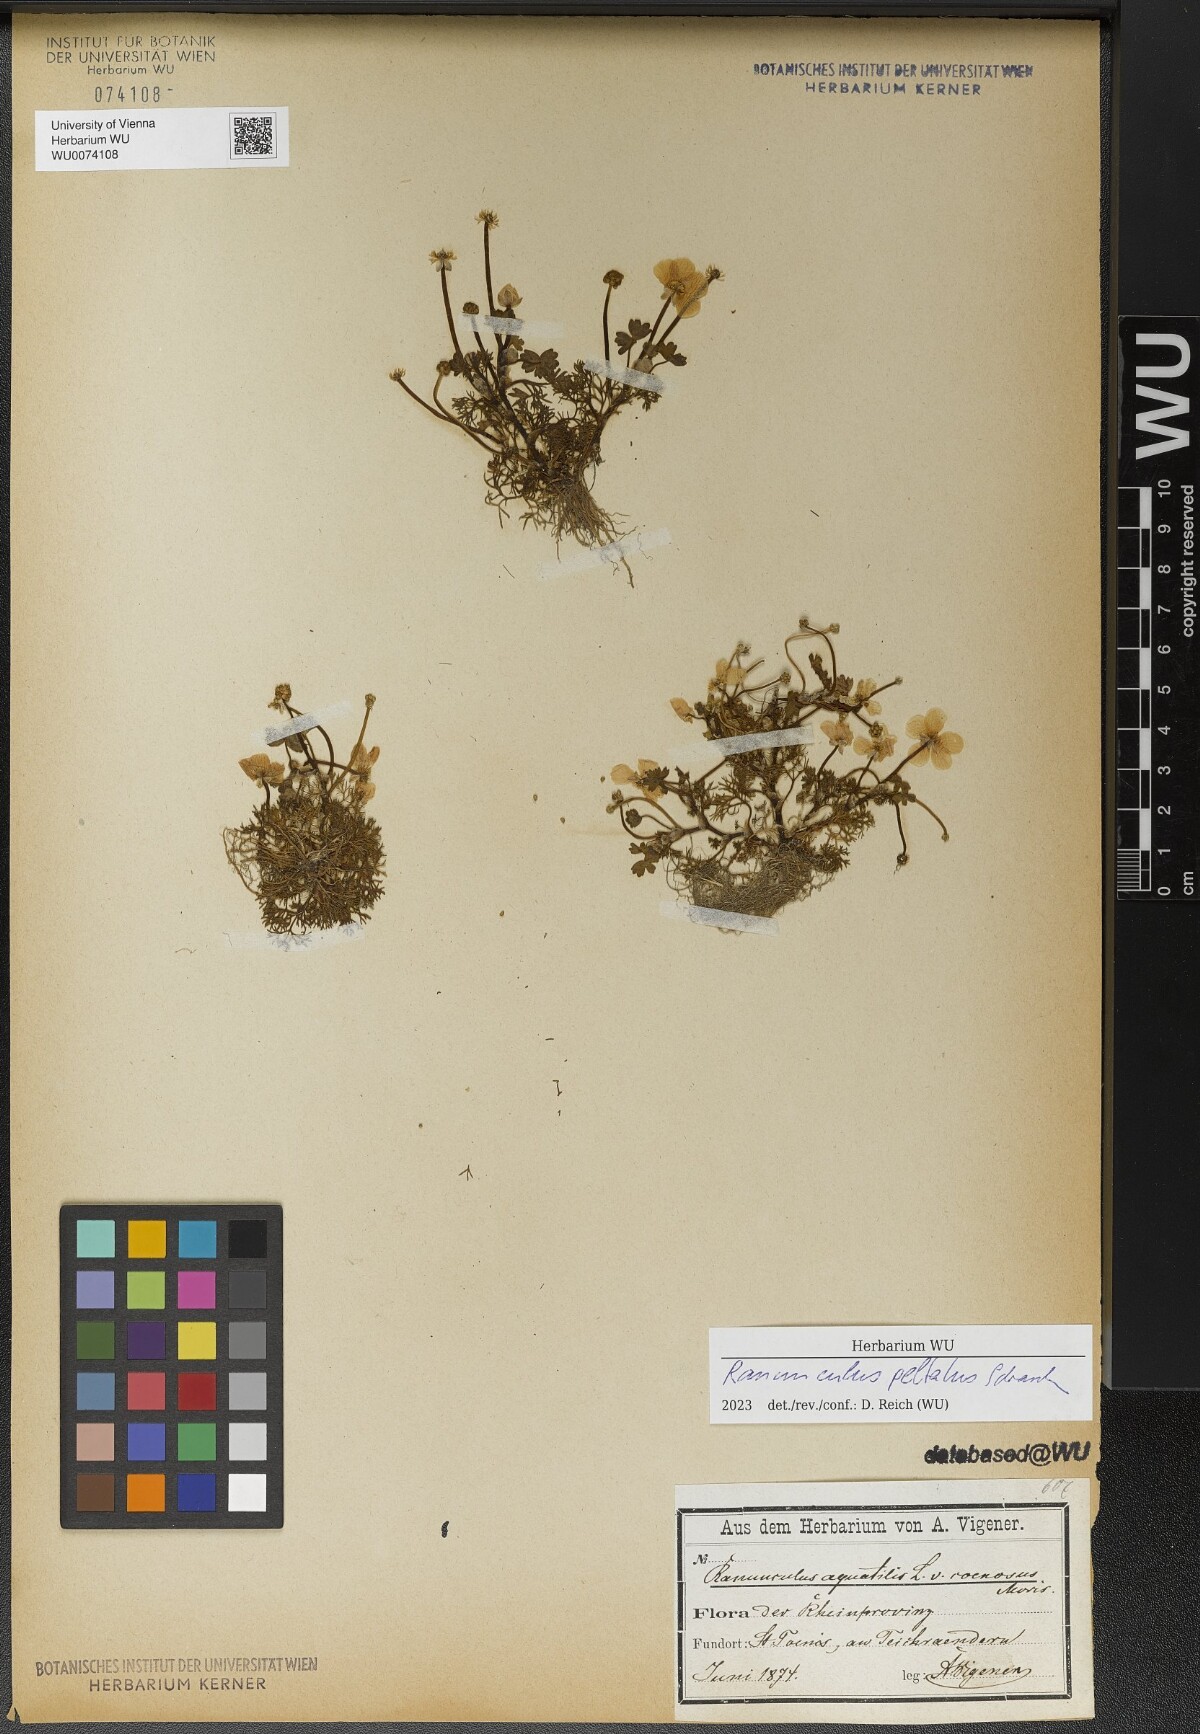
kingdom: Plantae
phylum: Tracheophyta
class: Magnoliopsida
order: Ranunculales
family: Ranunculaceae
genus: Ranunculus
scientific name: Ranunculus peltatus
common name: Pond water-crowfoot
